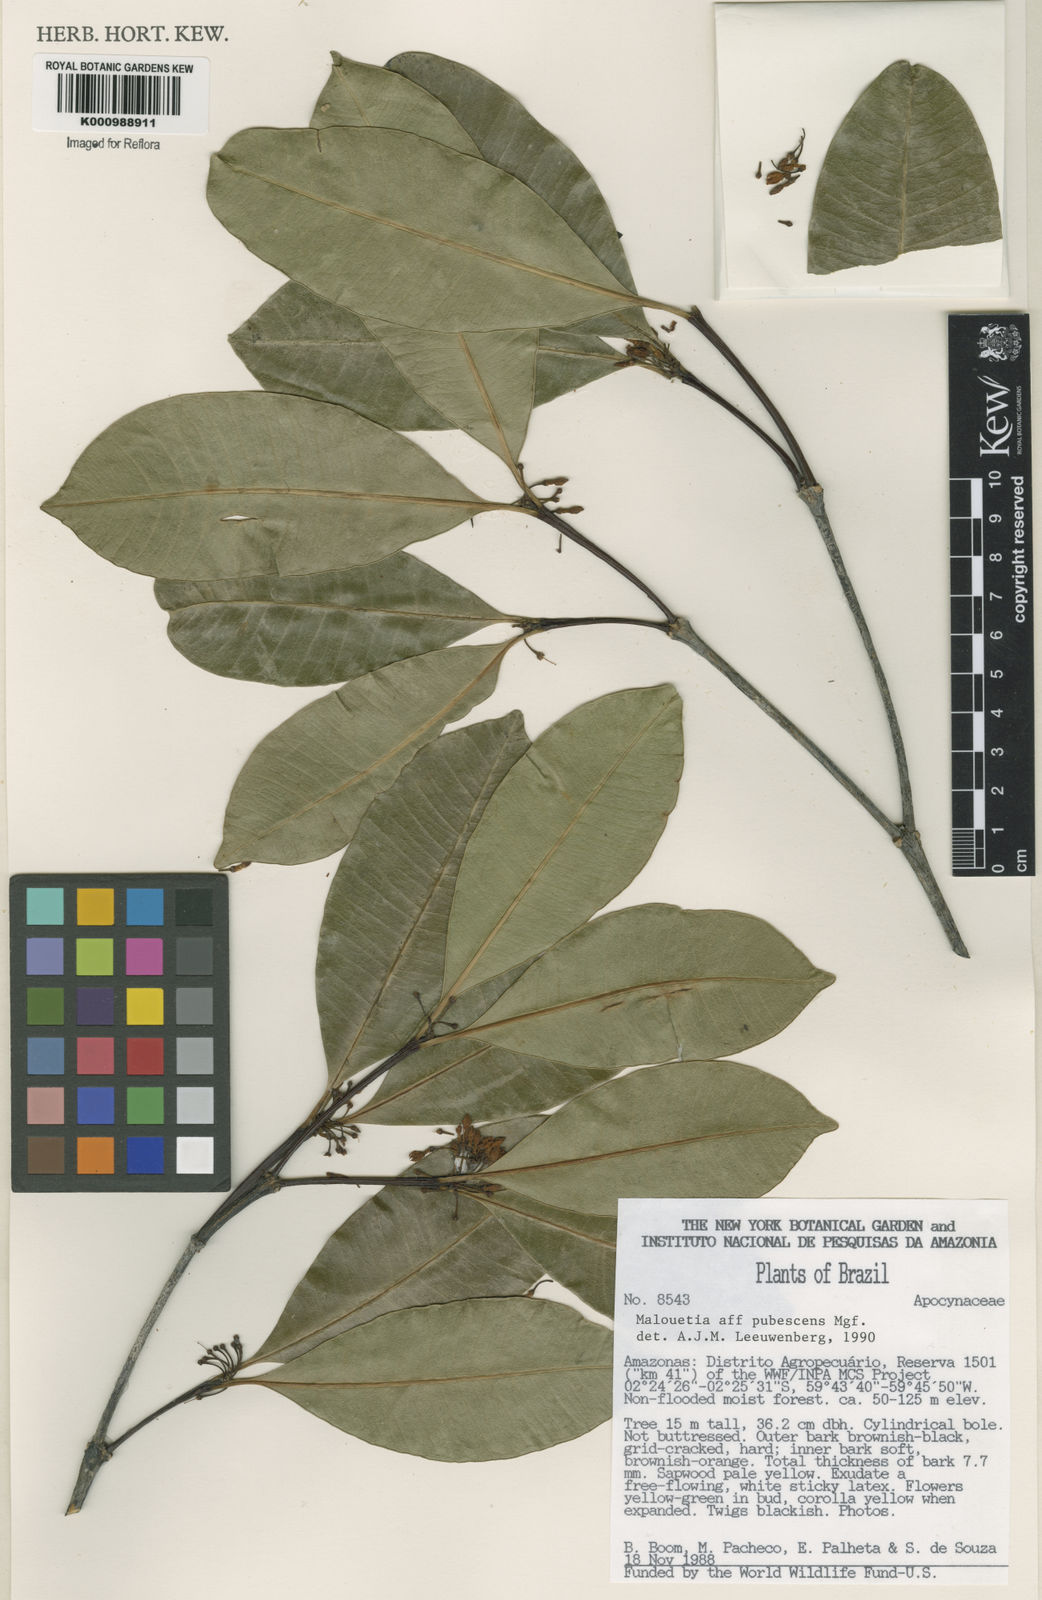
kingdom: Plantae
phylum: Tracheophyta
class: Magnoliopsida
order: Gentianales
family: Apocynaceae
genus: Malouetia
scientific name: Malouetia pubescens
